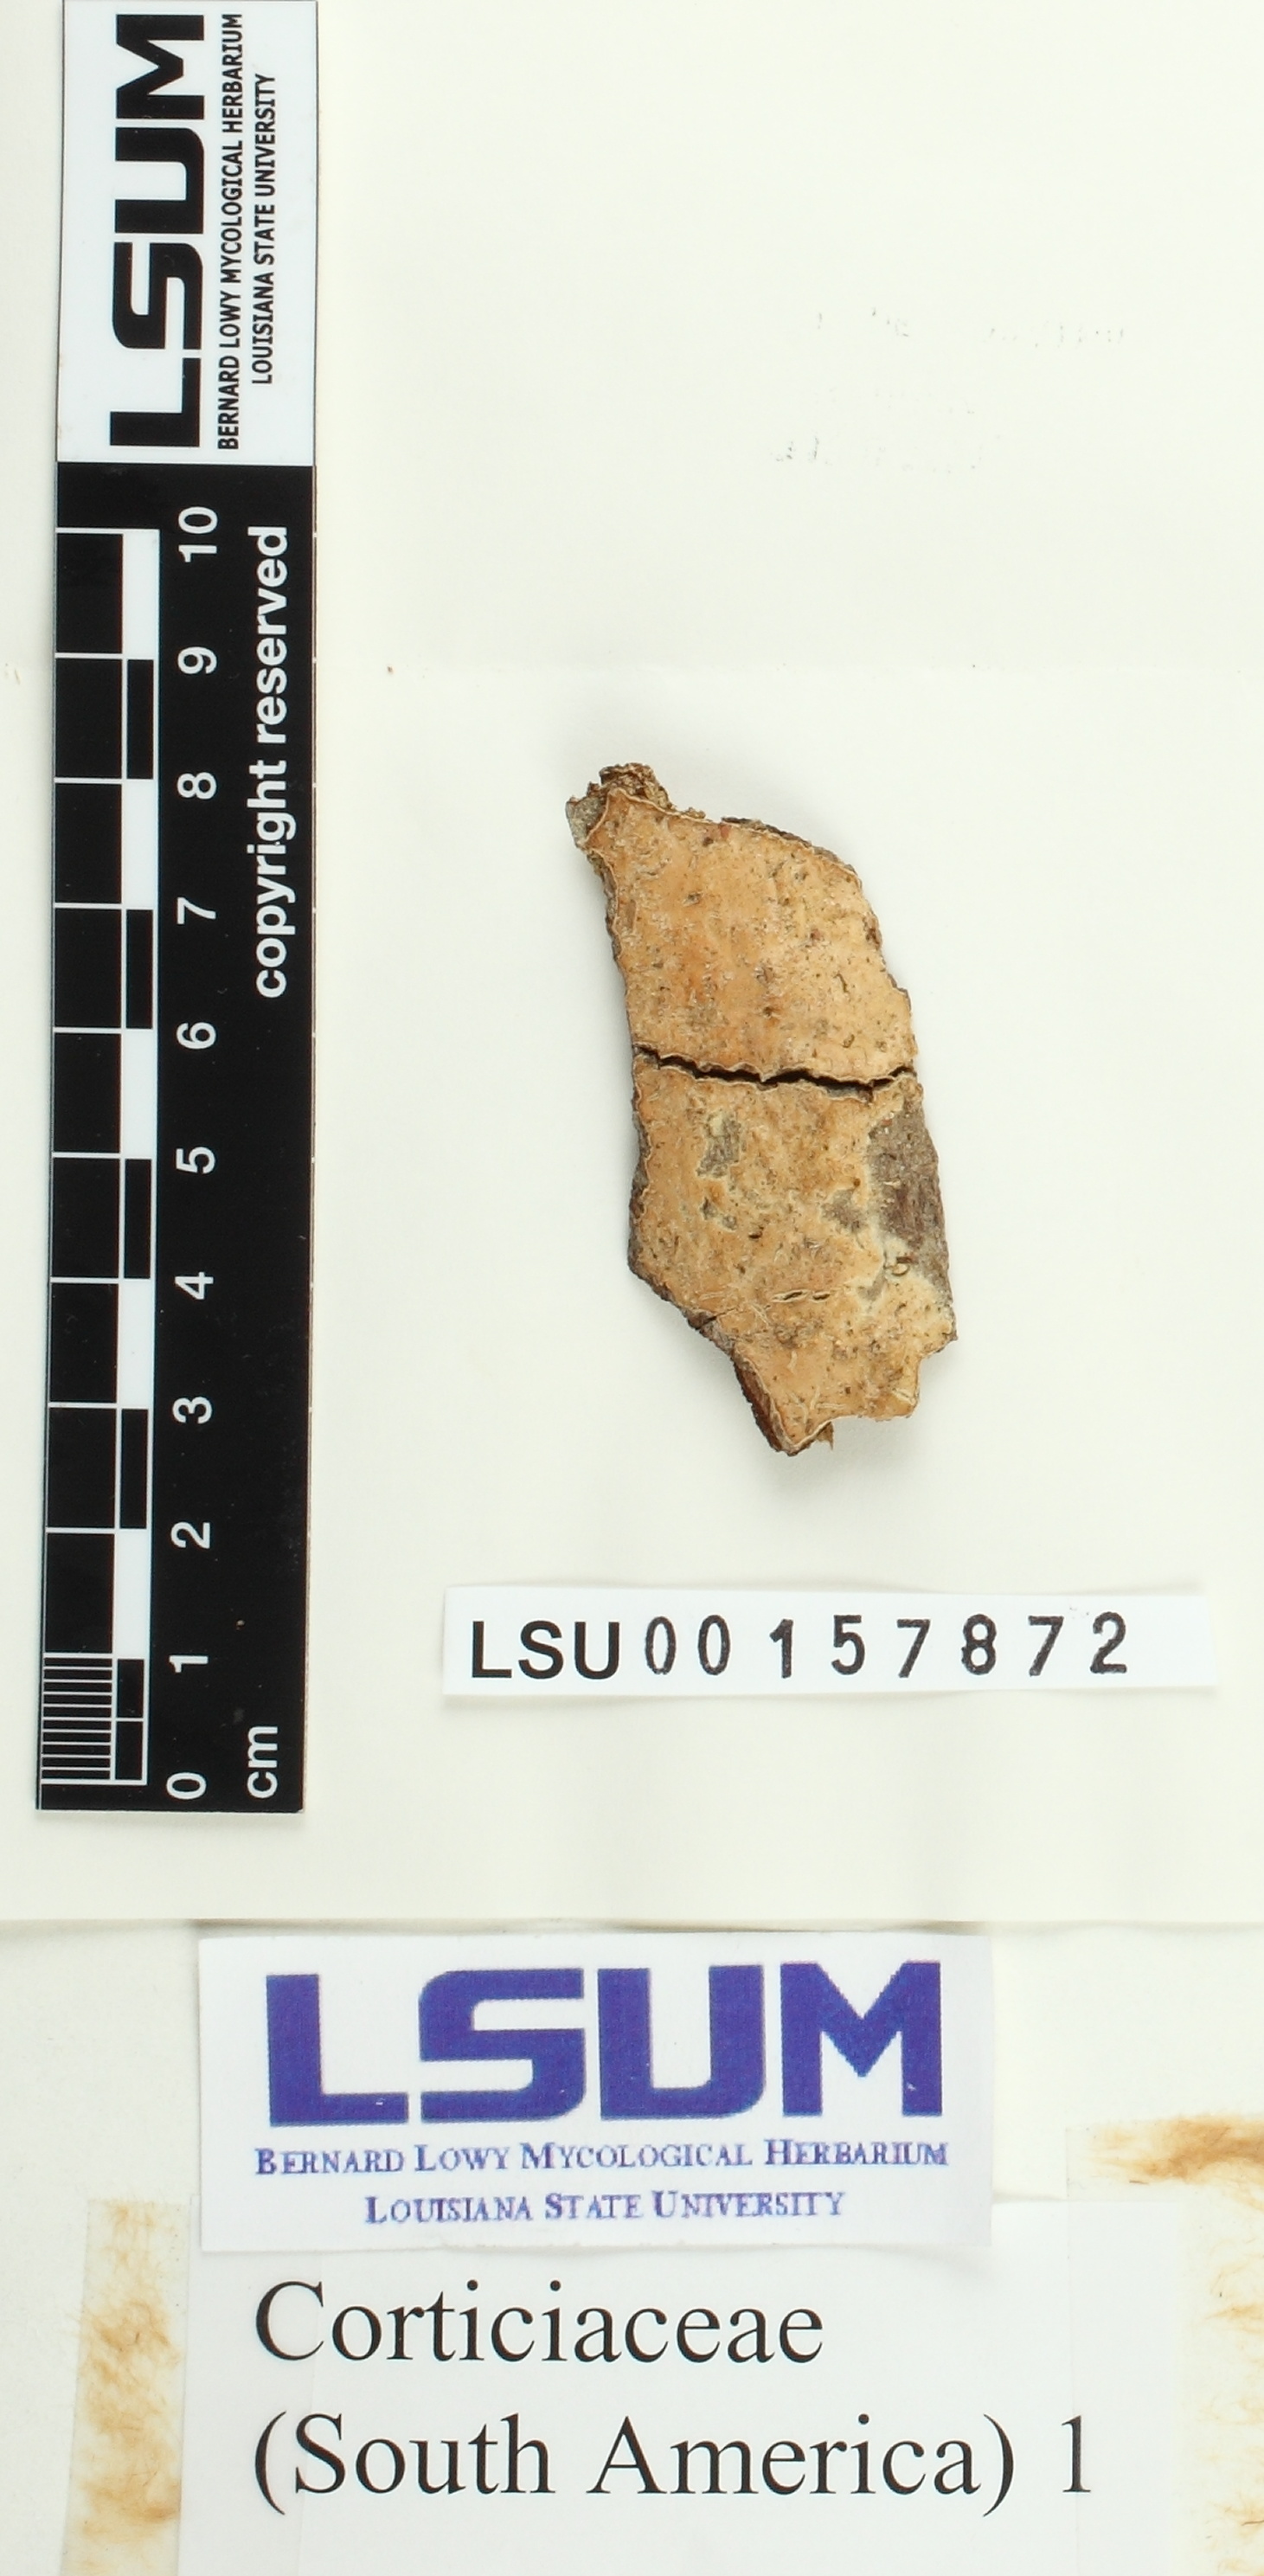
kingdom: Fungi
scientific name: Fungi
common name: Fungi
